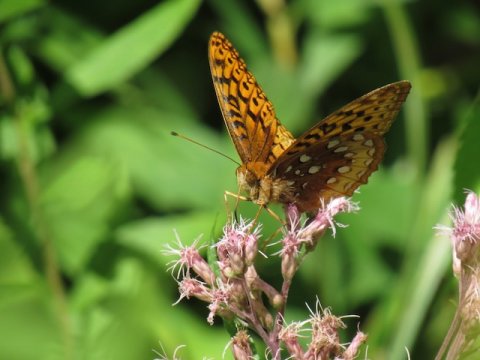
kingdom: Animalia
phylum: Arthropoda
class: Insecta
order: Lepidoptera
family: Nymphalidae
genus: Speyeria
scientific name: Speyeria cybele
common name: Great Spangled Fritillary
